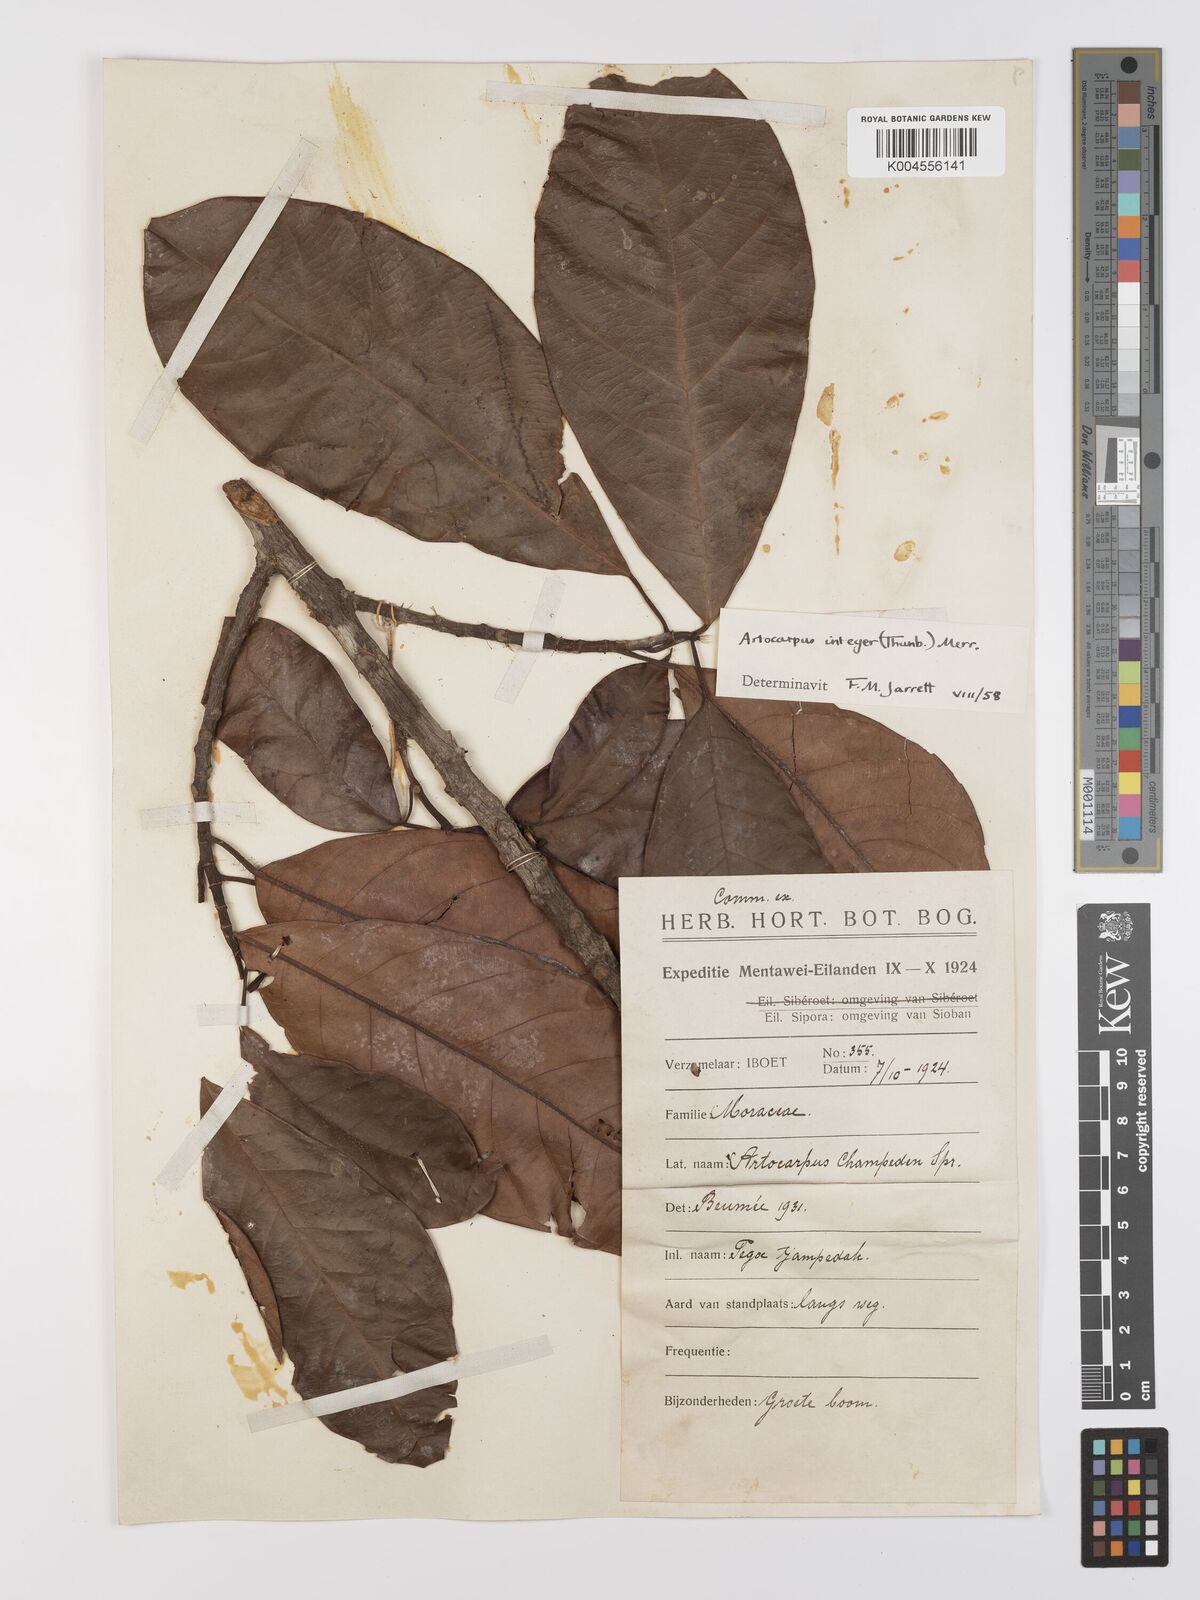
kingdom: Plantae
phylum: Tracheophyta
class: Magnoliopsida
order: Rosales
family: Moraceae
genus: Artocarpus
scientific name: Artocarpus integer
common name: Chempedak
